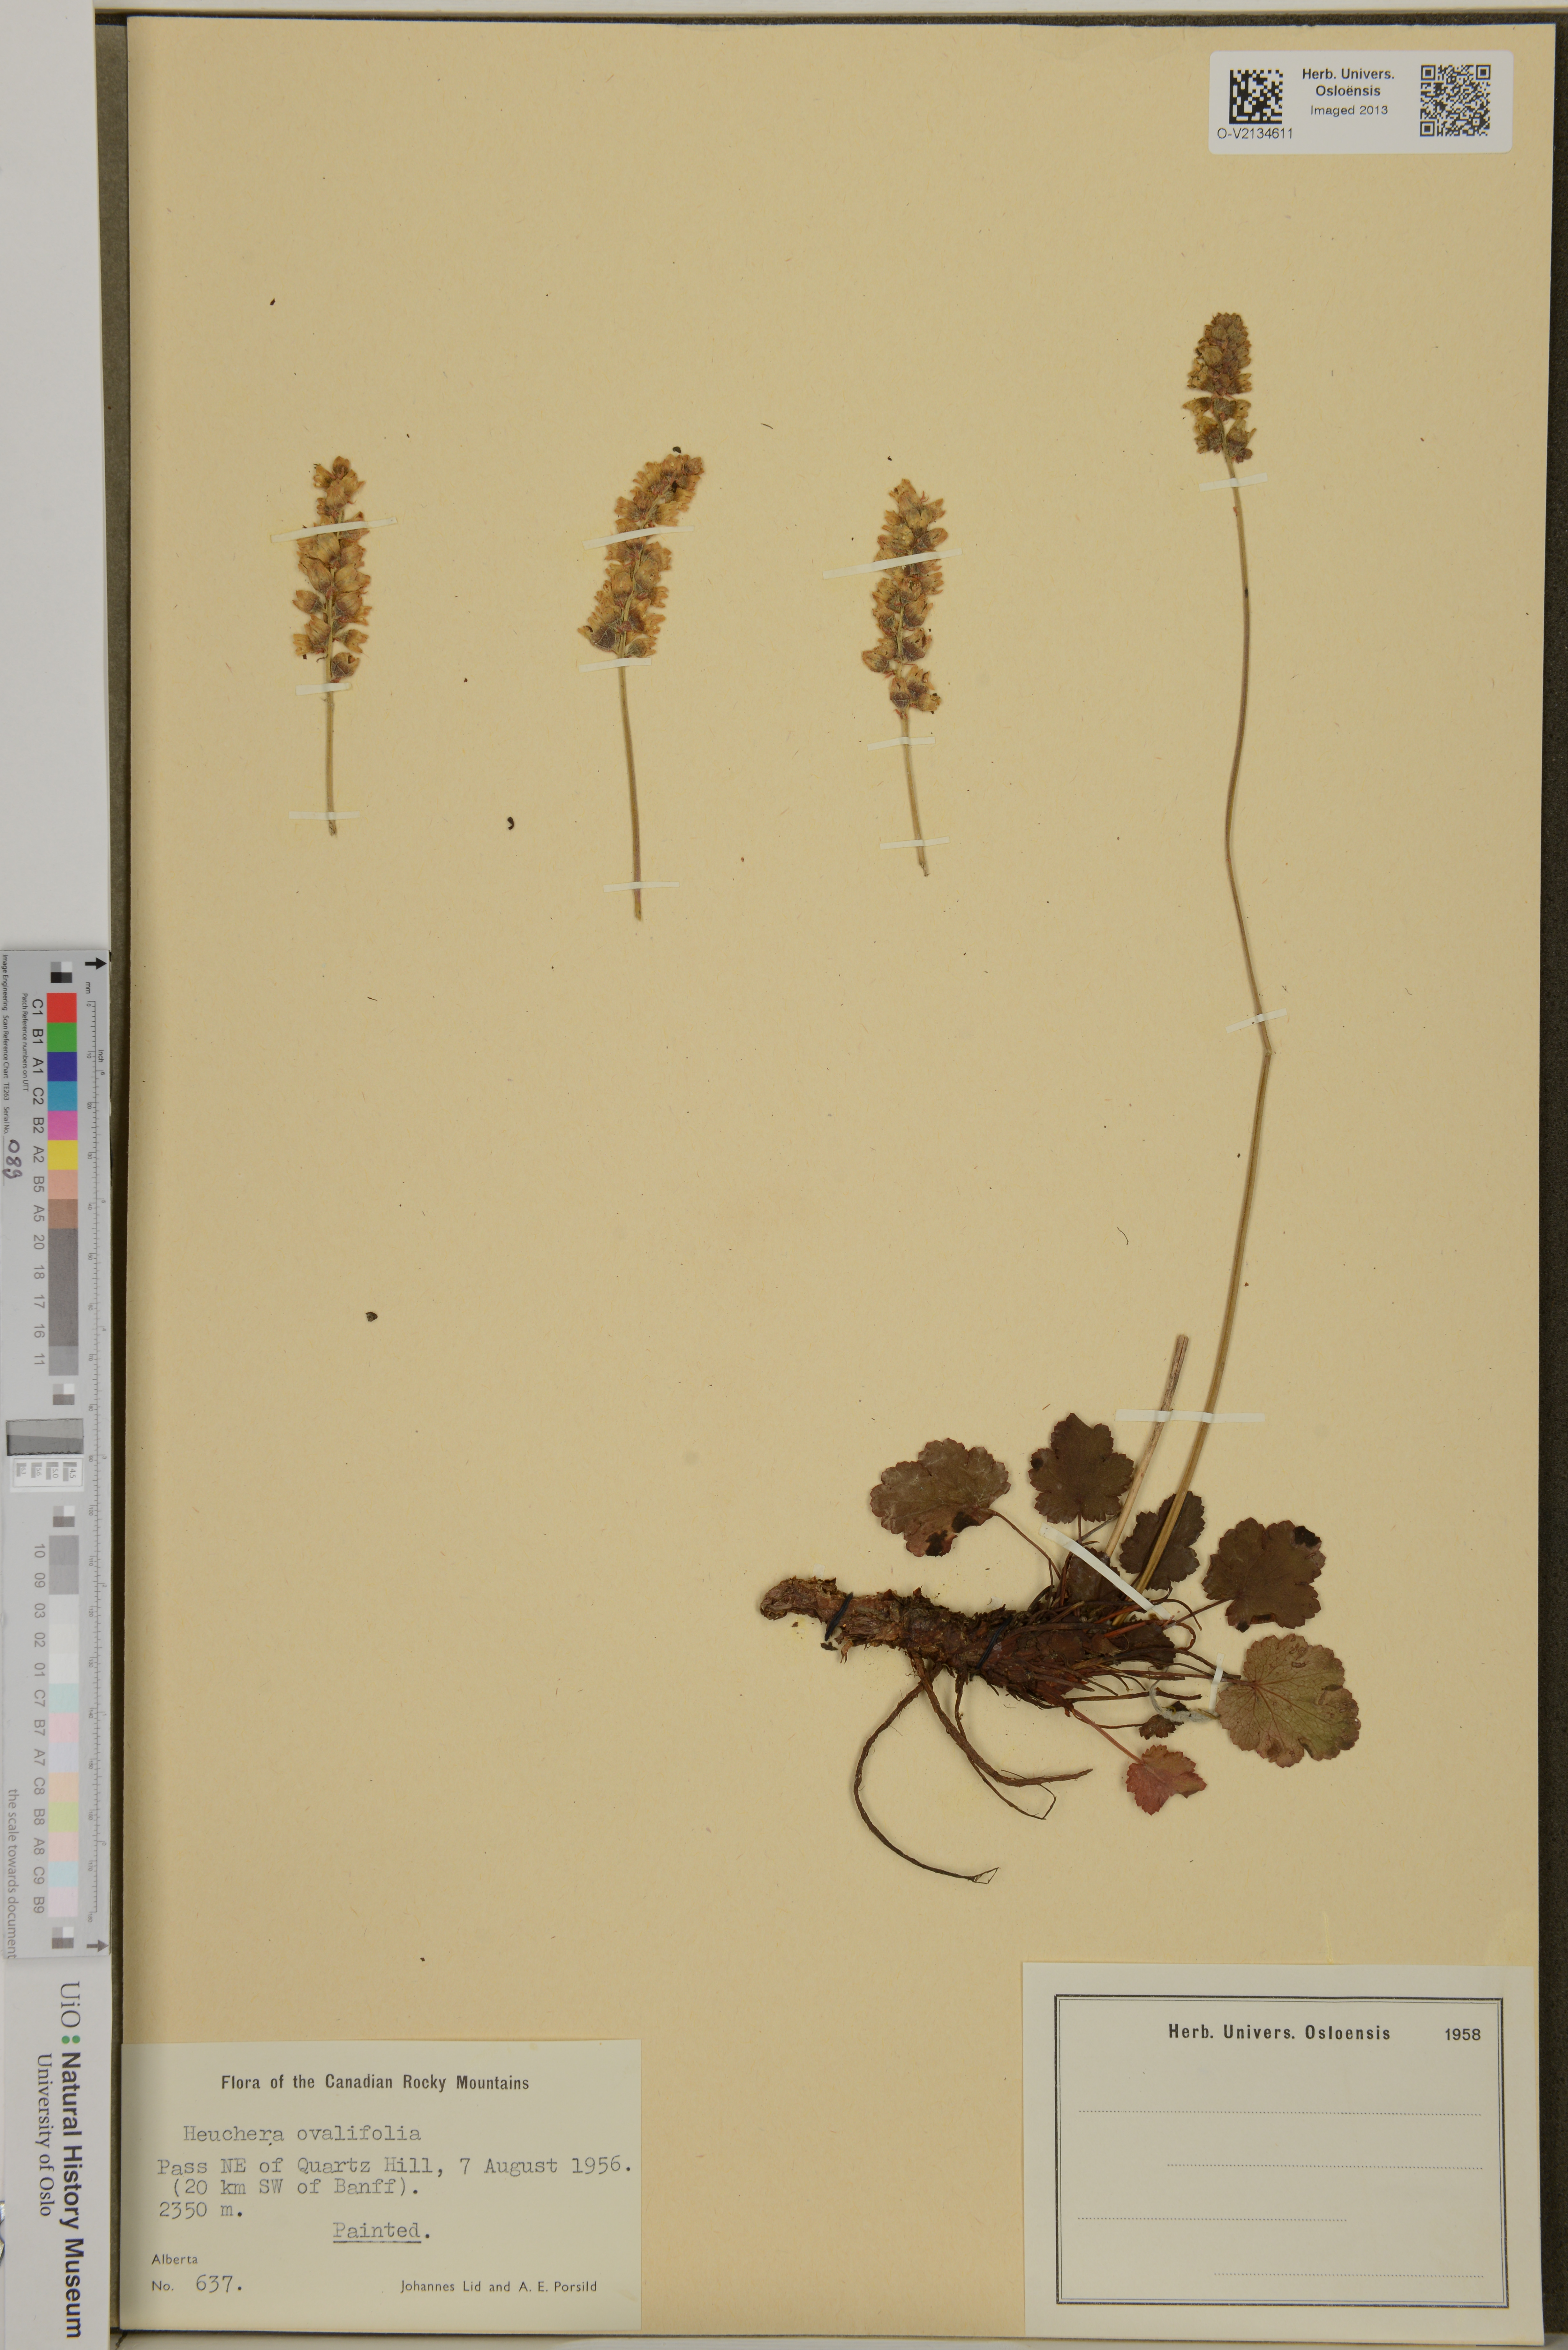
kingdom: Plantae
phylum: Tracheophyta
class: Magnoliopsida
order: Saxifragales
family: Saxifragaceae
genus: Heuchera
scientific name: Heuchera cylindrica
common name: Mat alumroot
